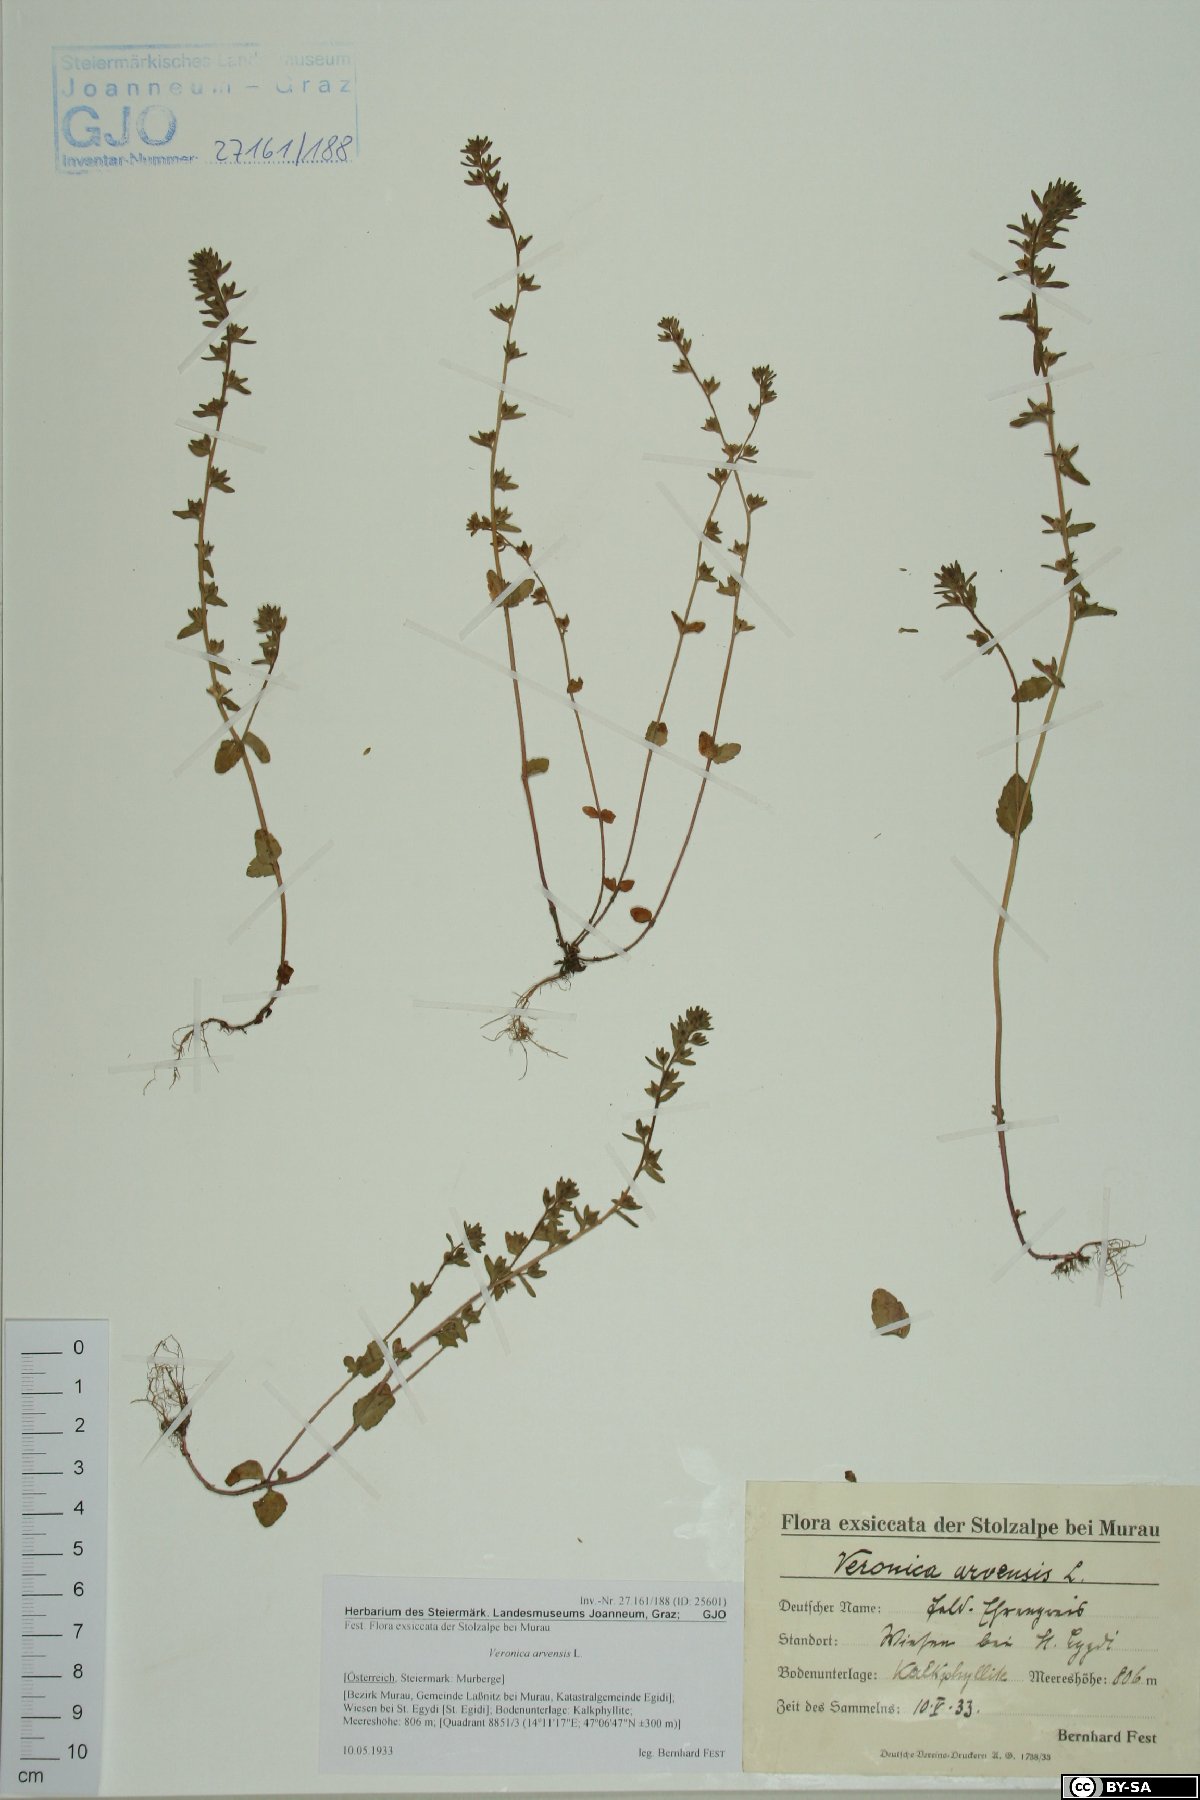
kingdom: Plantae
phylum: Tracheophyta
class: Magnoliopsida
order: Lamiales
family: Plantaginaceae
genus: Veronica
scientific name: Veronica arvensis
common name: Corn speedwell
